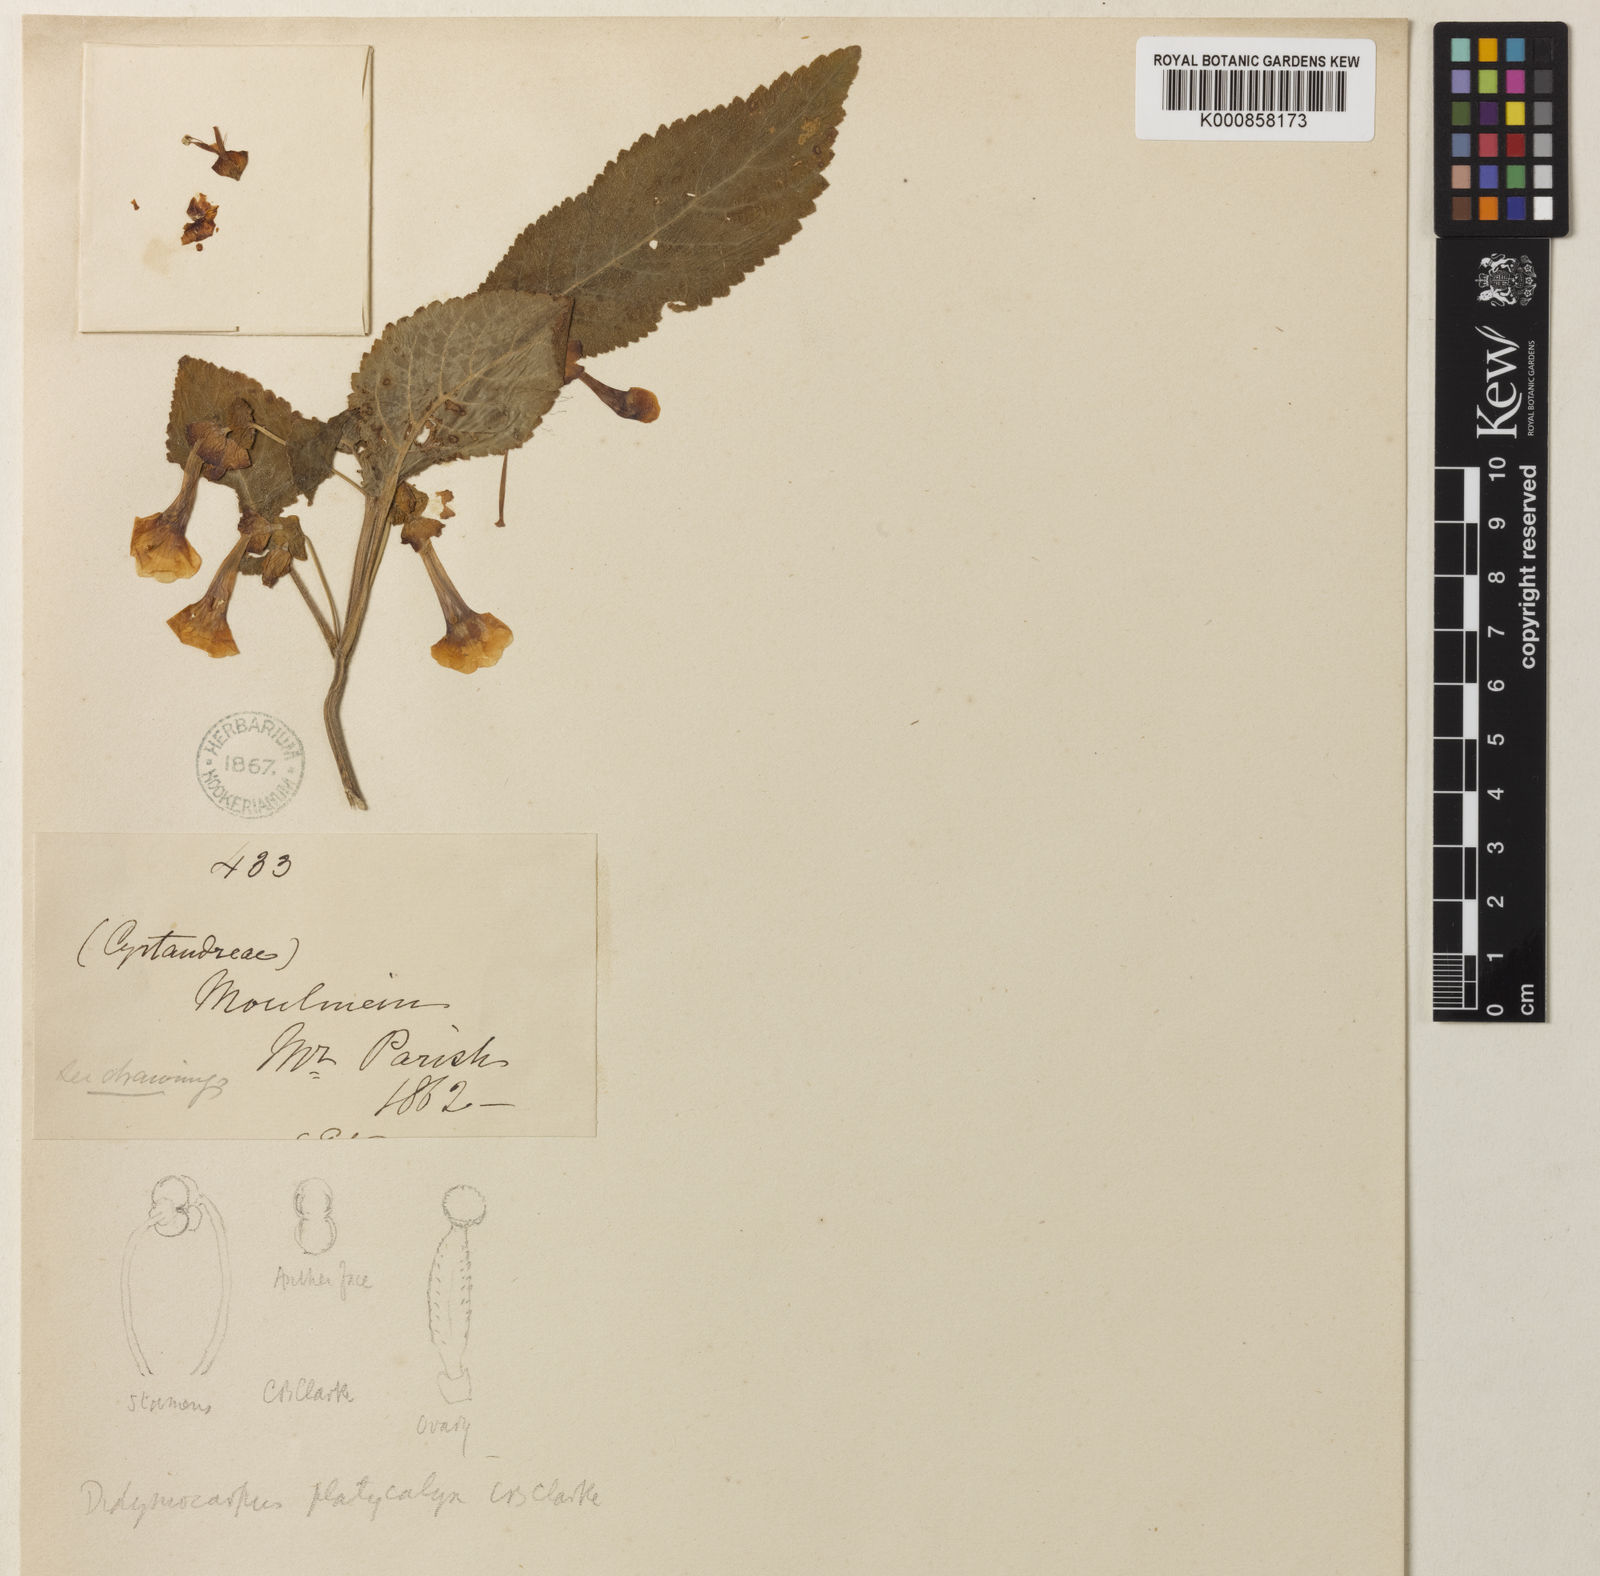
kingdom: Plantae
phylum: Tracheophyta
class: Magnoliopsida
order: Lamiales
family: Gesneriaceae
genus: Henckelia
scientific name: Henckelia
